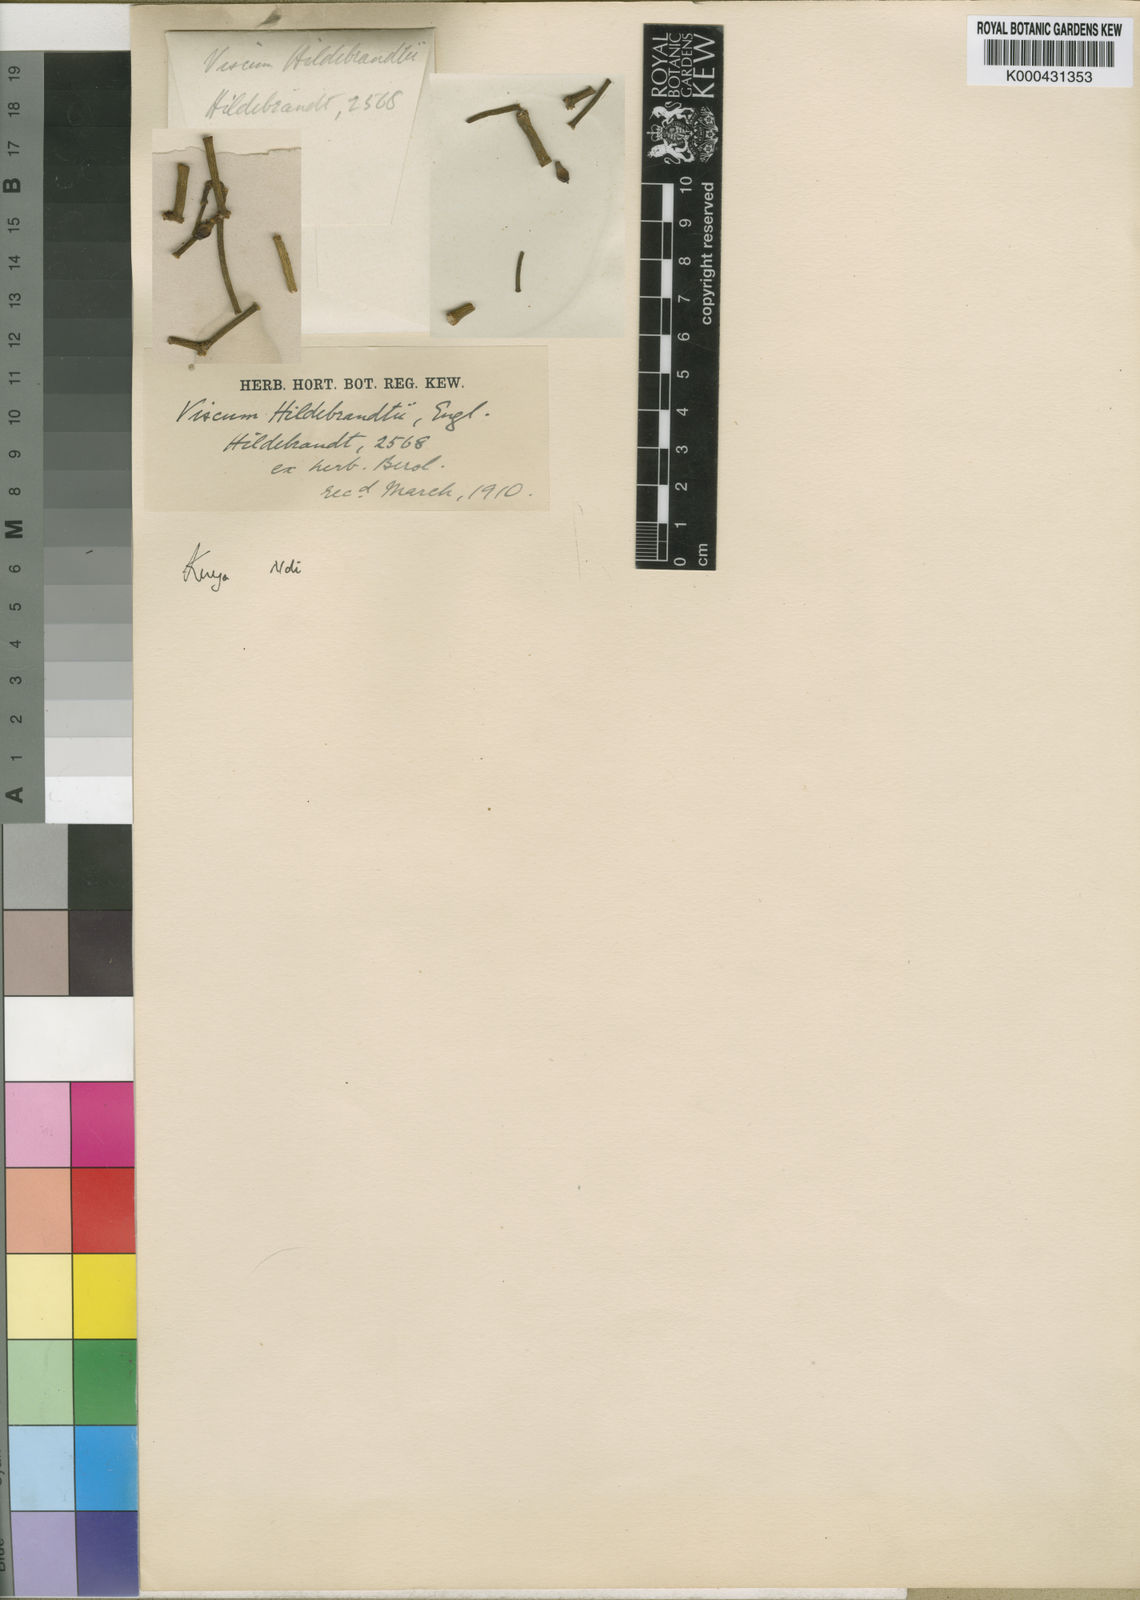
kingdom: Plantae
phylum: Tracheophyta
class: Magnoliopsida
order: Santalales
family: Viscaceae
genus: Viscum
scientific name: Viscum hildebrandtii
